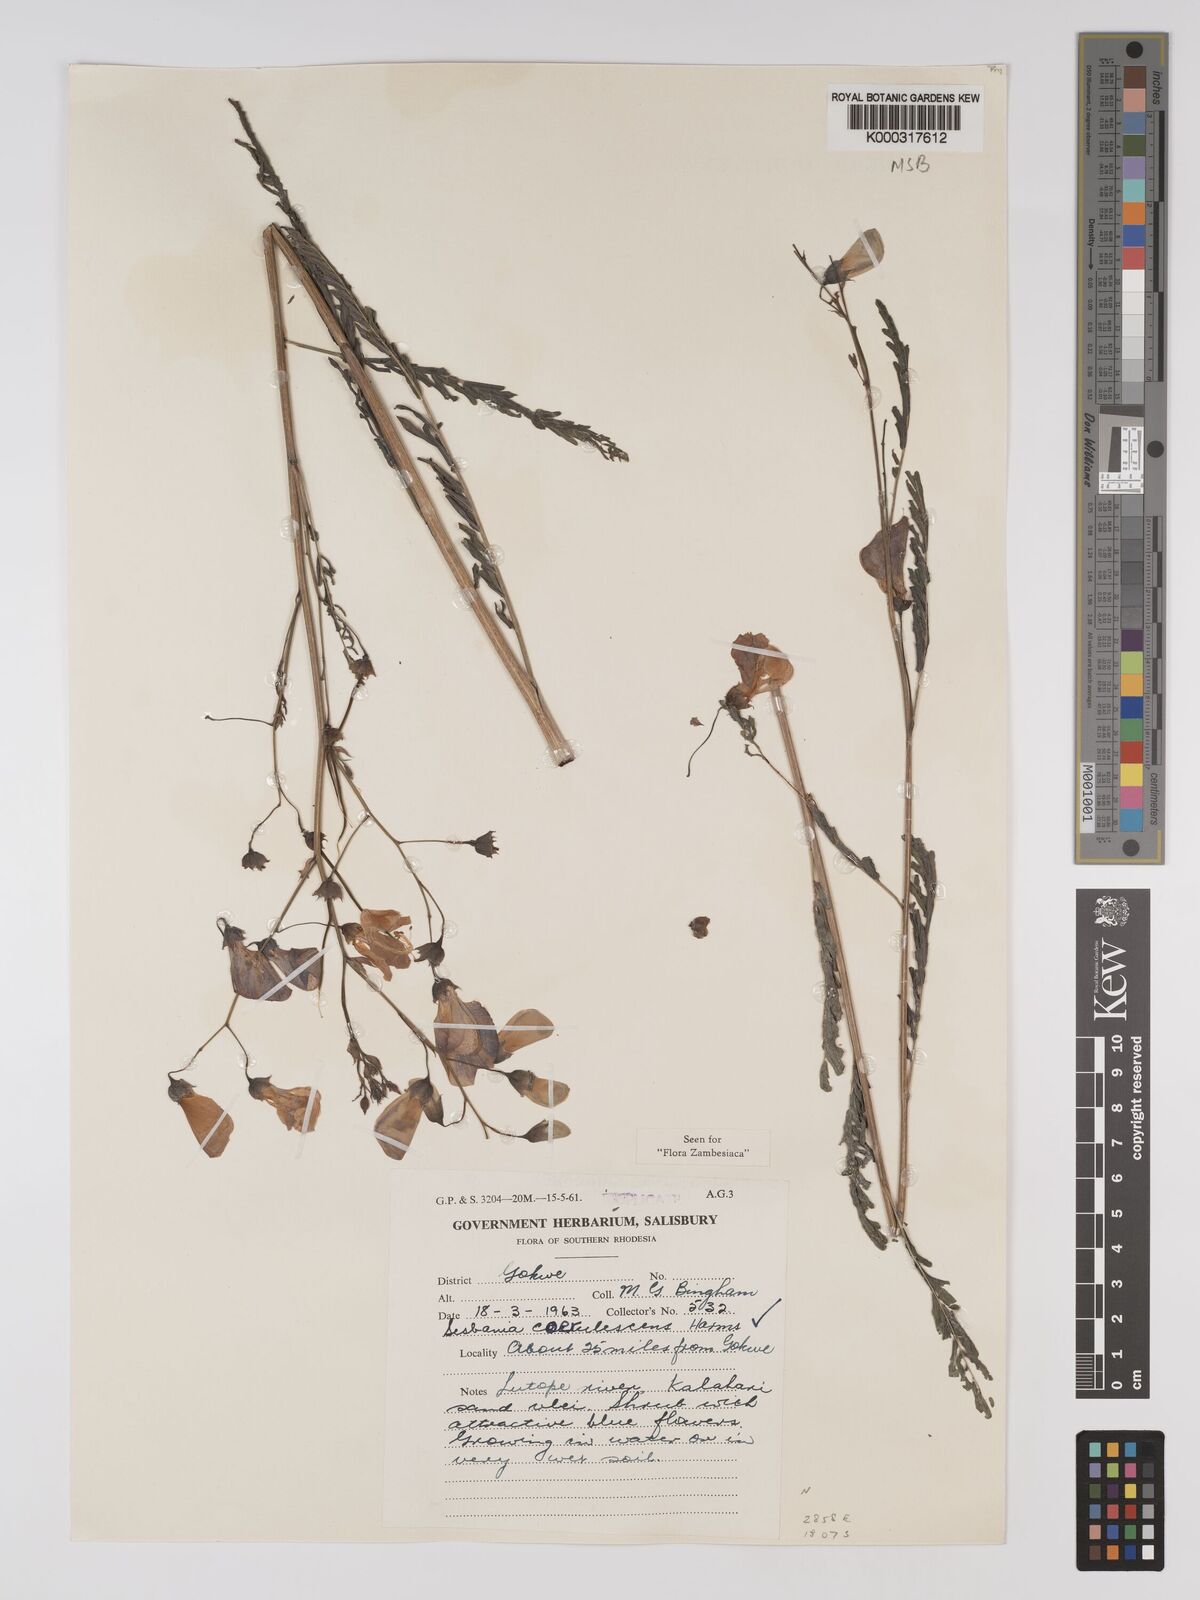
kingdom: Plantae
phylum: Tracheophyta
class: Magnoliopsida
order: Fabales
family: Fabaceae
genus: Sesbania
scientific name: Sesbania coerulescens
